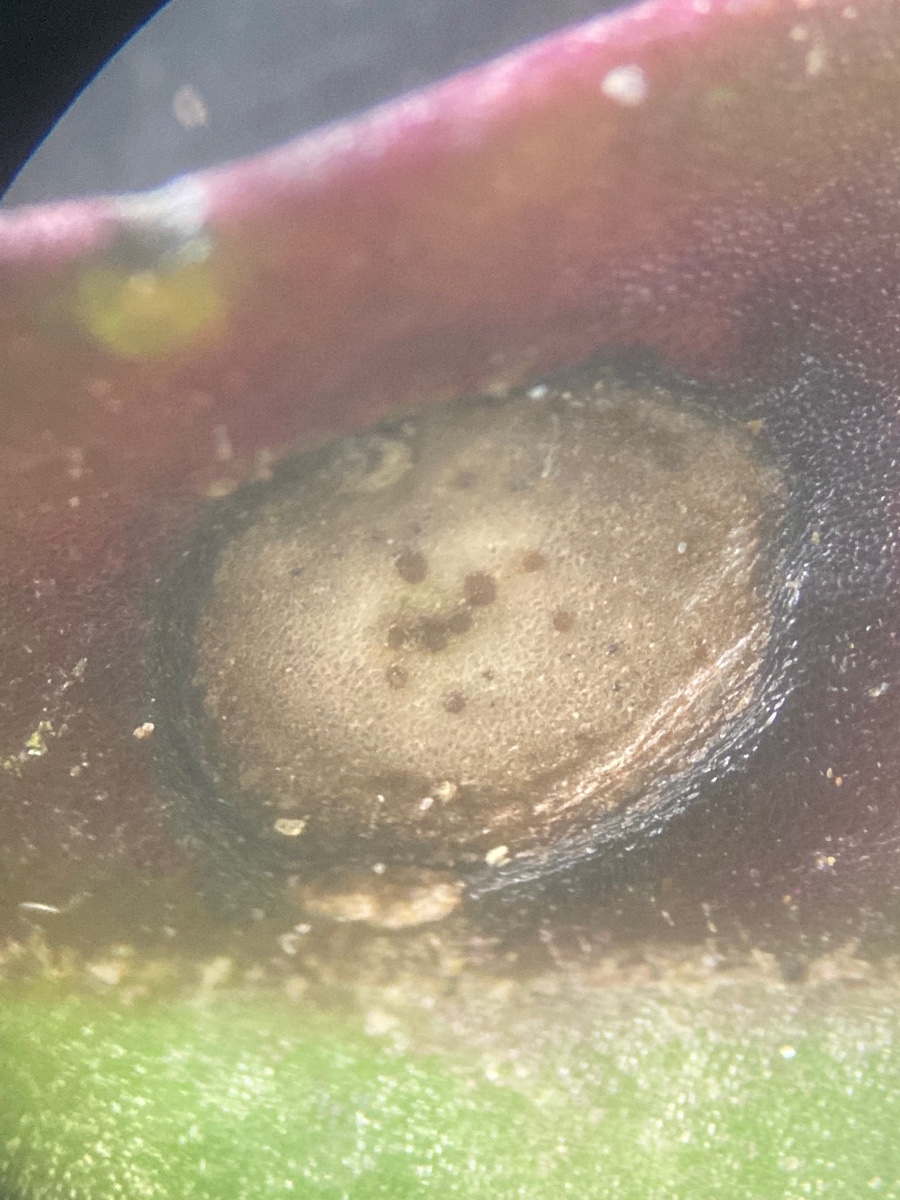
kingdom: Fungi
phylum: Ascomycota
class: Sordariomycetes
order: Diaporthales
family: Gnomoniaceae
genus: Diplodina
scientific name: Diplodina euphrasiae
